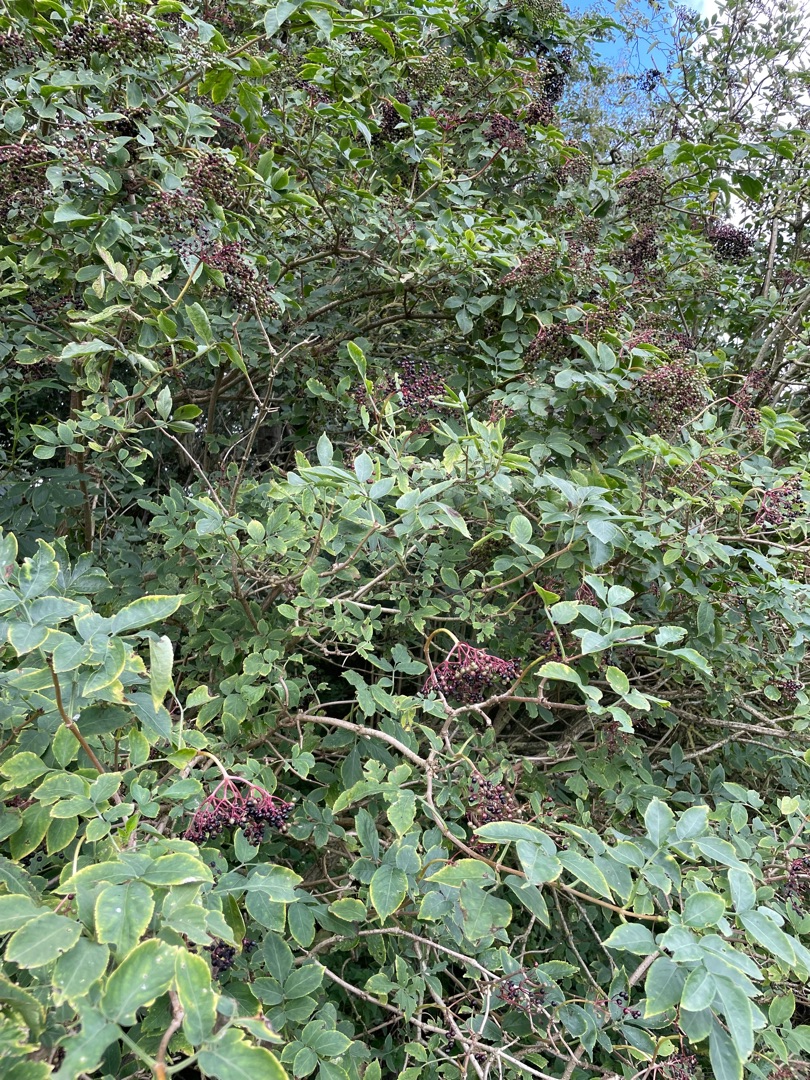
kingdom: Plantae
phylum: Tracheophyta
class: Magnoliopsida
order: Dipsacales
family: Viburnaceae
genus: Sambucus
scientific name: Sambucus nigra
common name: Almindelig hyld
